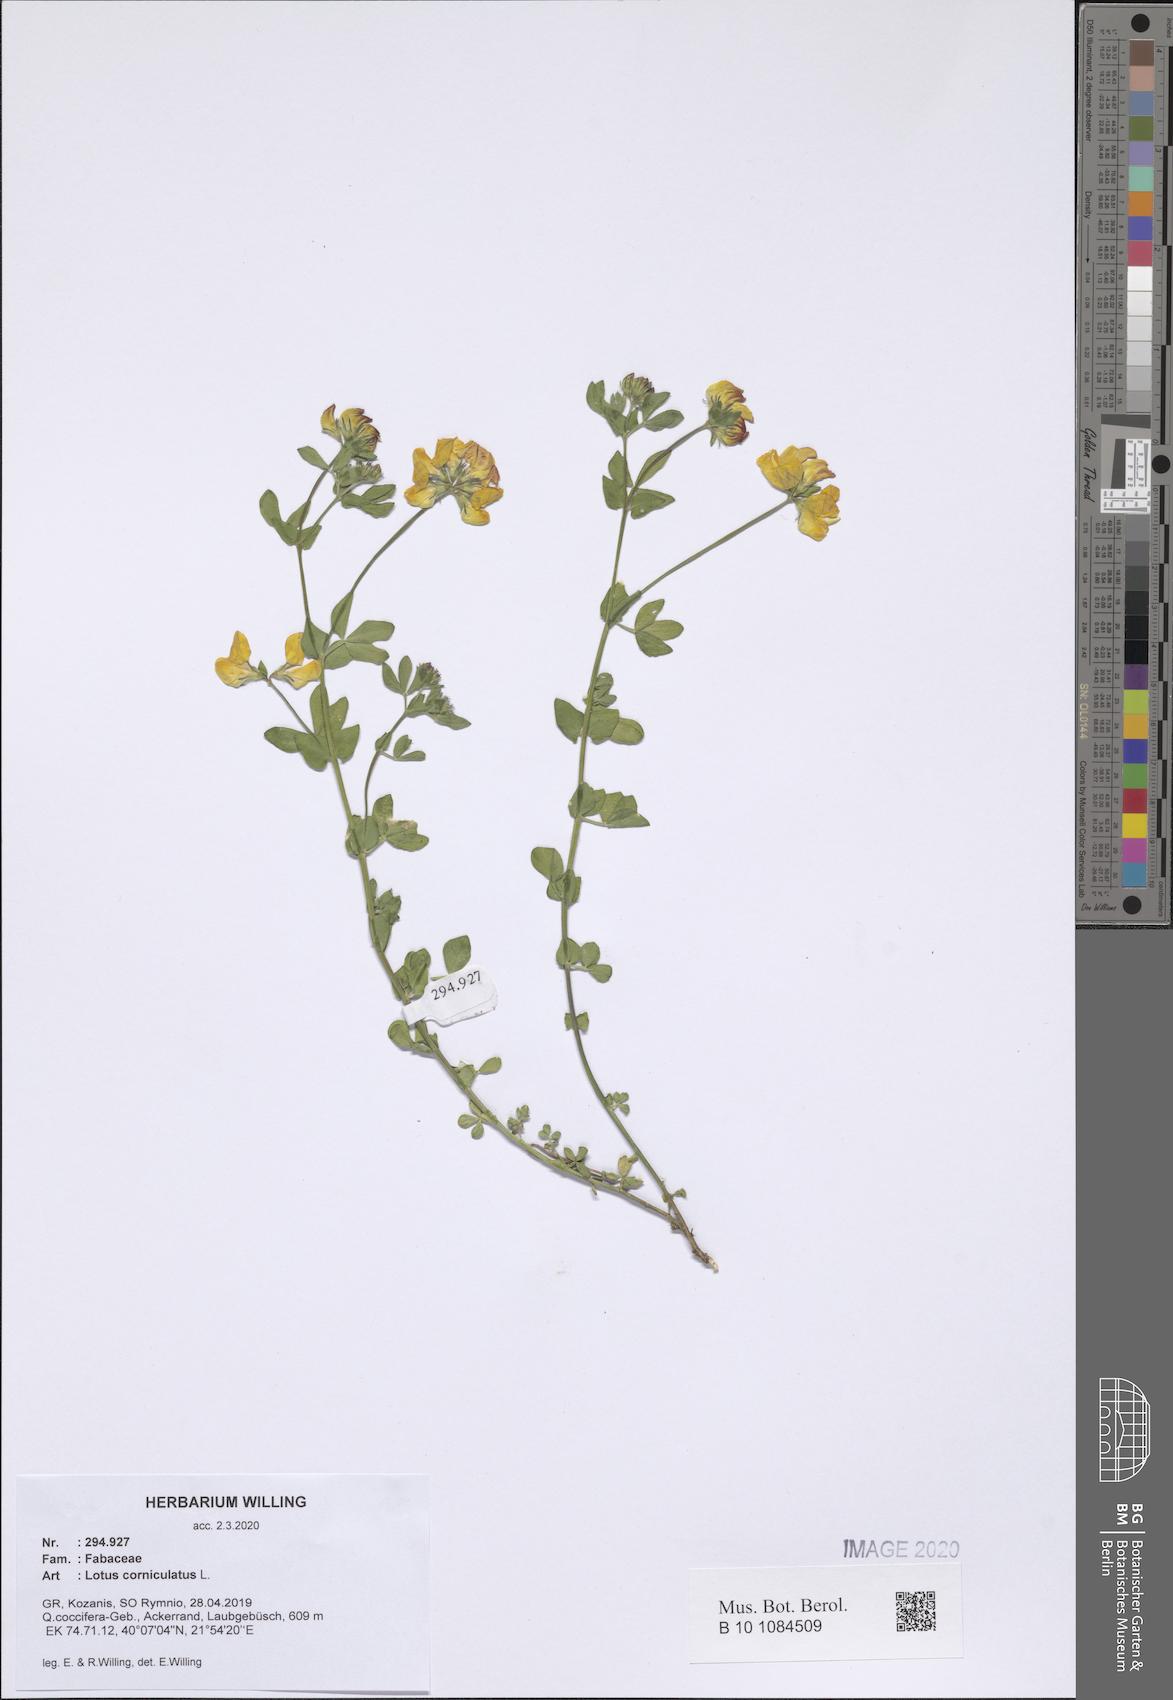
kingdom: Plantae
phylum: Tracheophyta
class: Magnoliopsida
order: Fabales
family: Fabaceae
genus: Lotus
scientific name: Lotus corniculatus
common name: Common bird's-foot-trefoil
